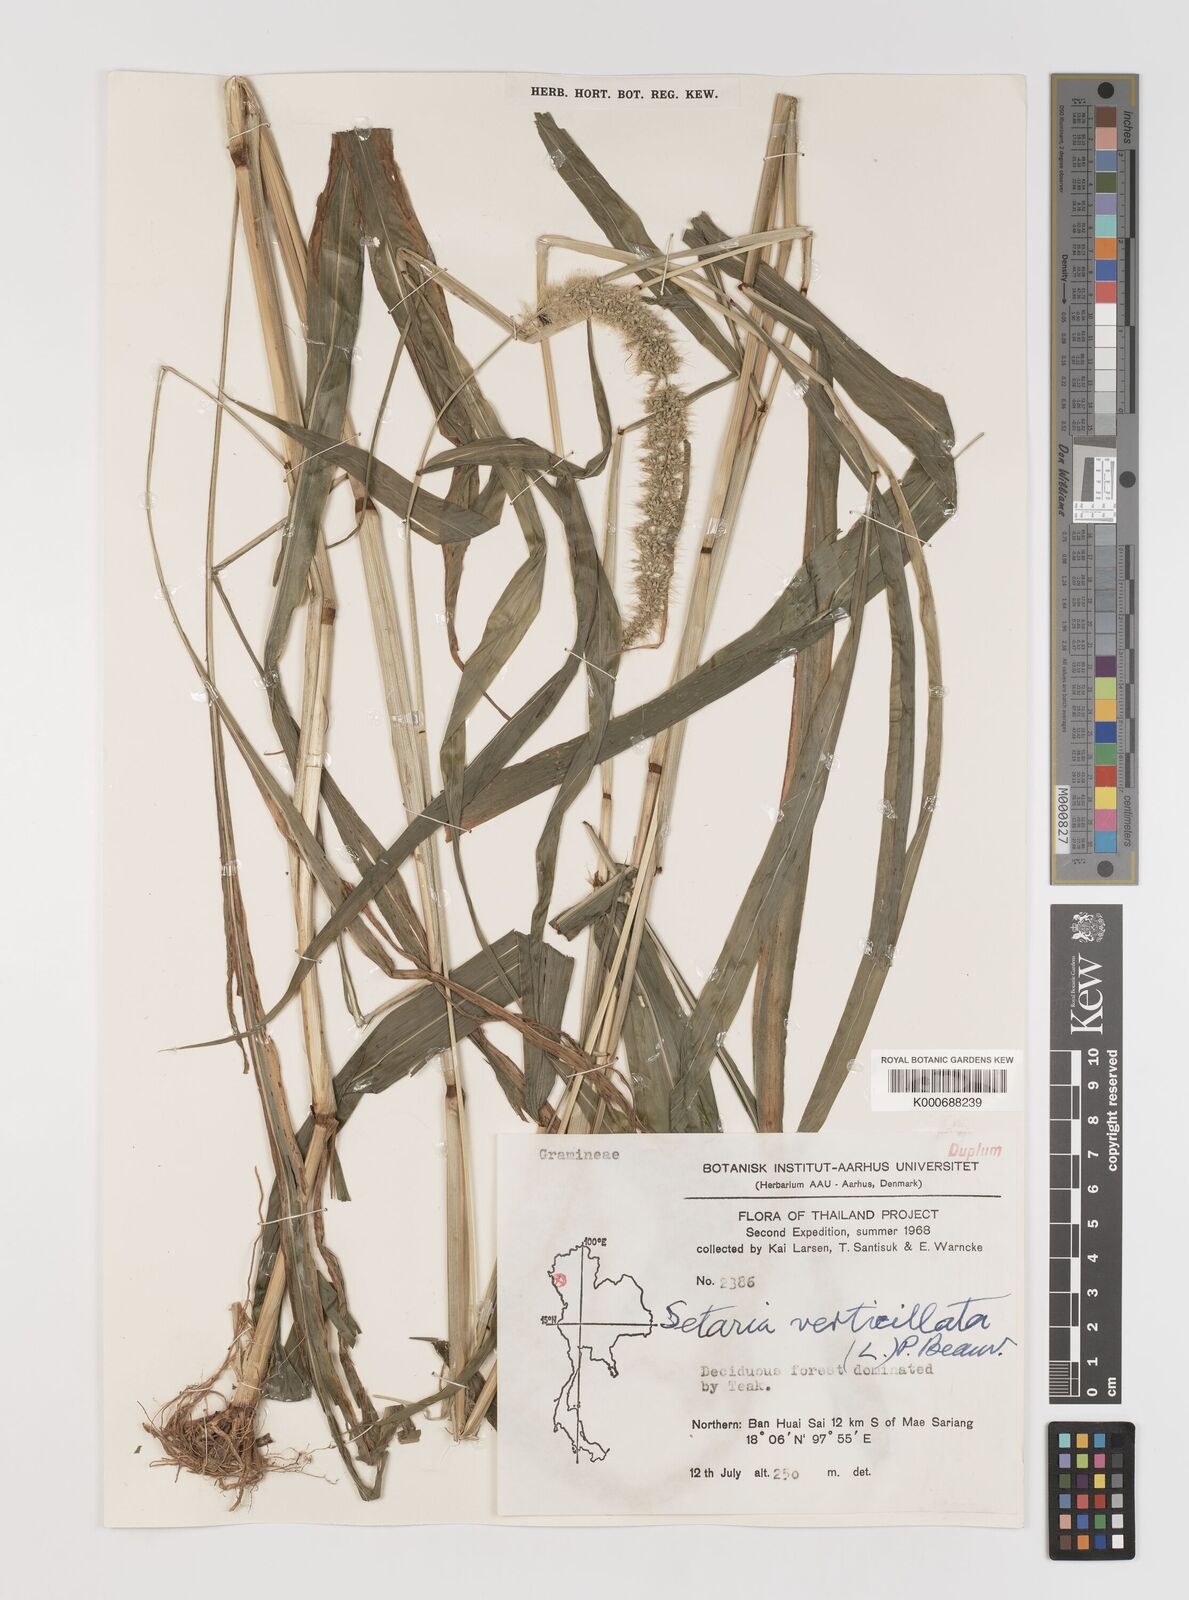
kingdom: Plantae
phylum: Tracheophyta
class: Liliopsida
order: Poales
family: Poaceae
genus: Setaria
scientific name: Setaria verticillata
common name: Hooked bristlegrass
